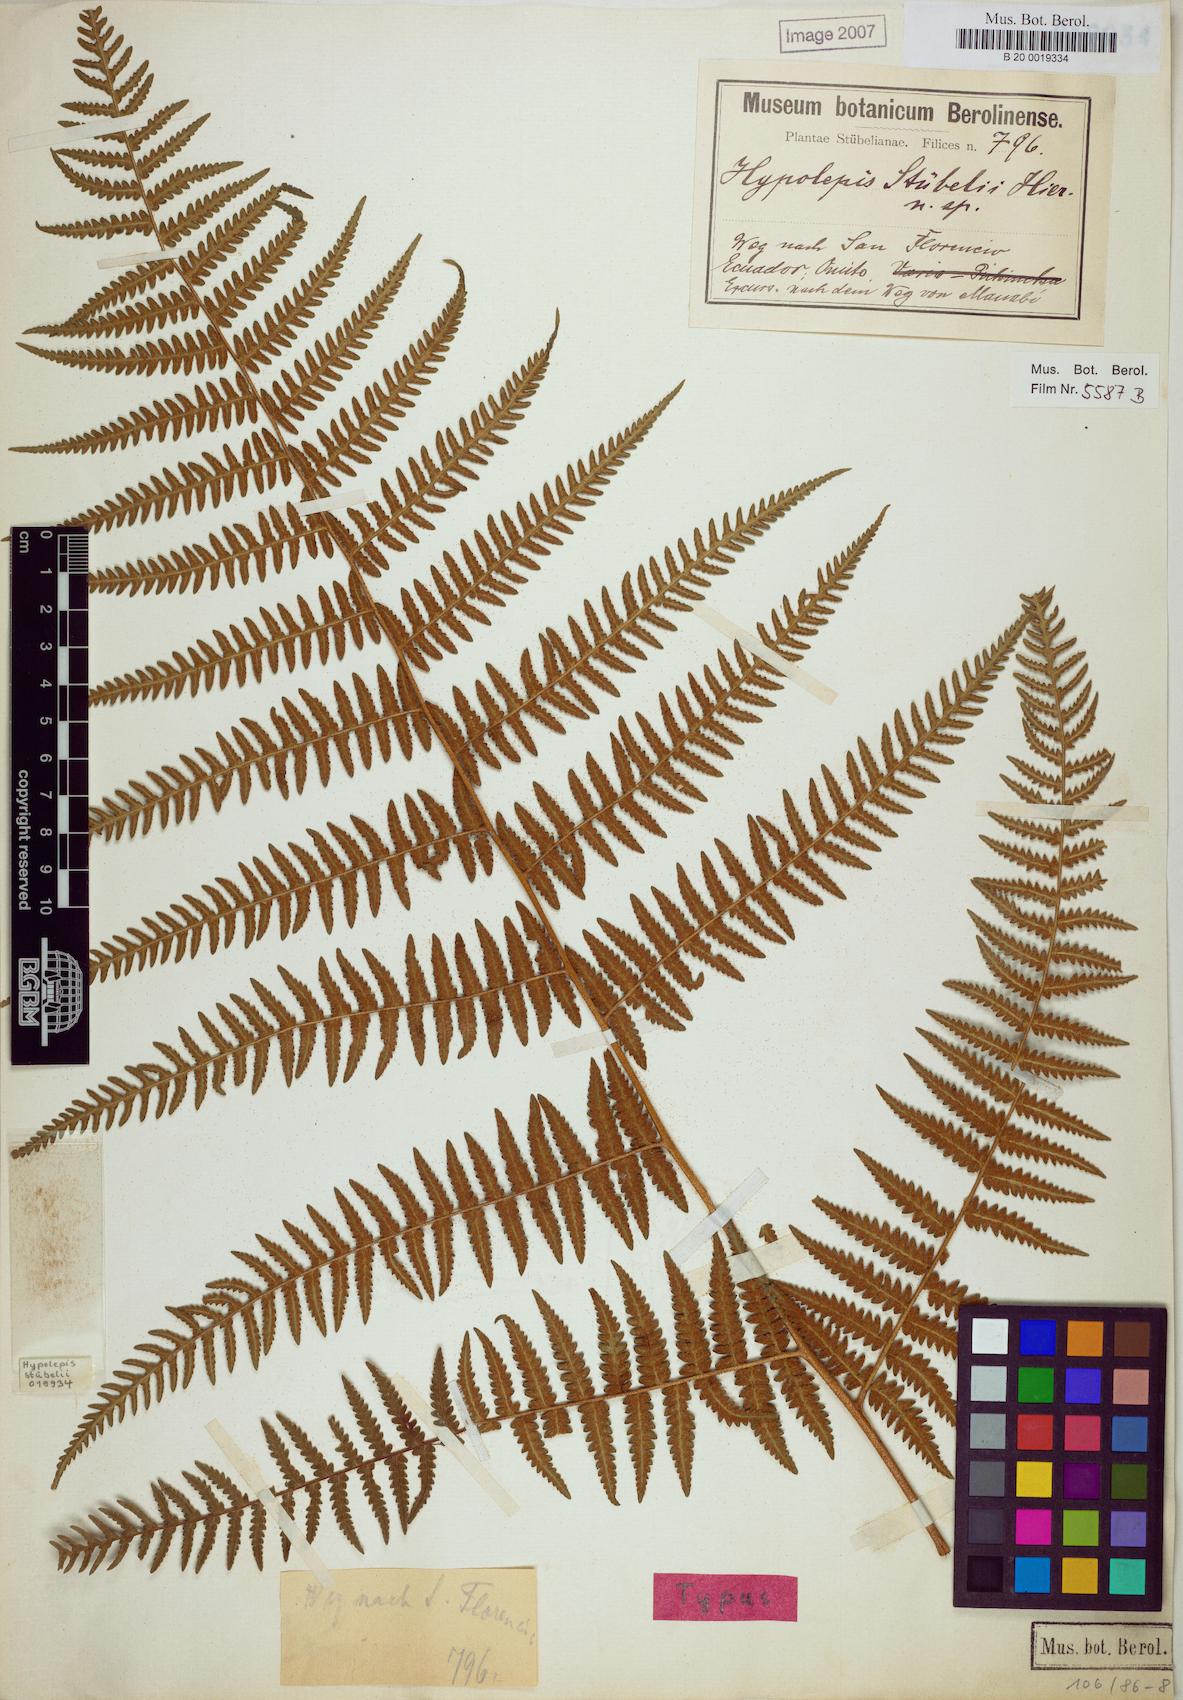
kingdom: Plantae
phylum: Tracheophyta
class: Polypodiopsida
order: Polypodiales
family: Dennstaedtiaceae
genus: Hypolepis
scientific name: Hypolepis stuebelii
